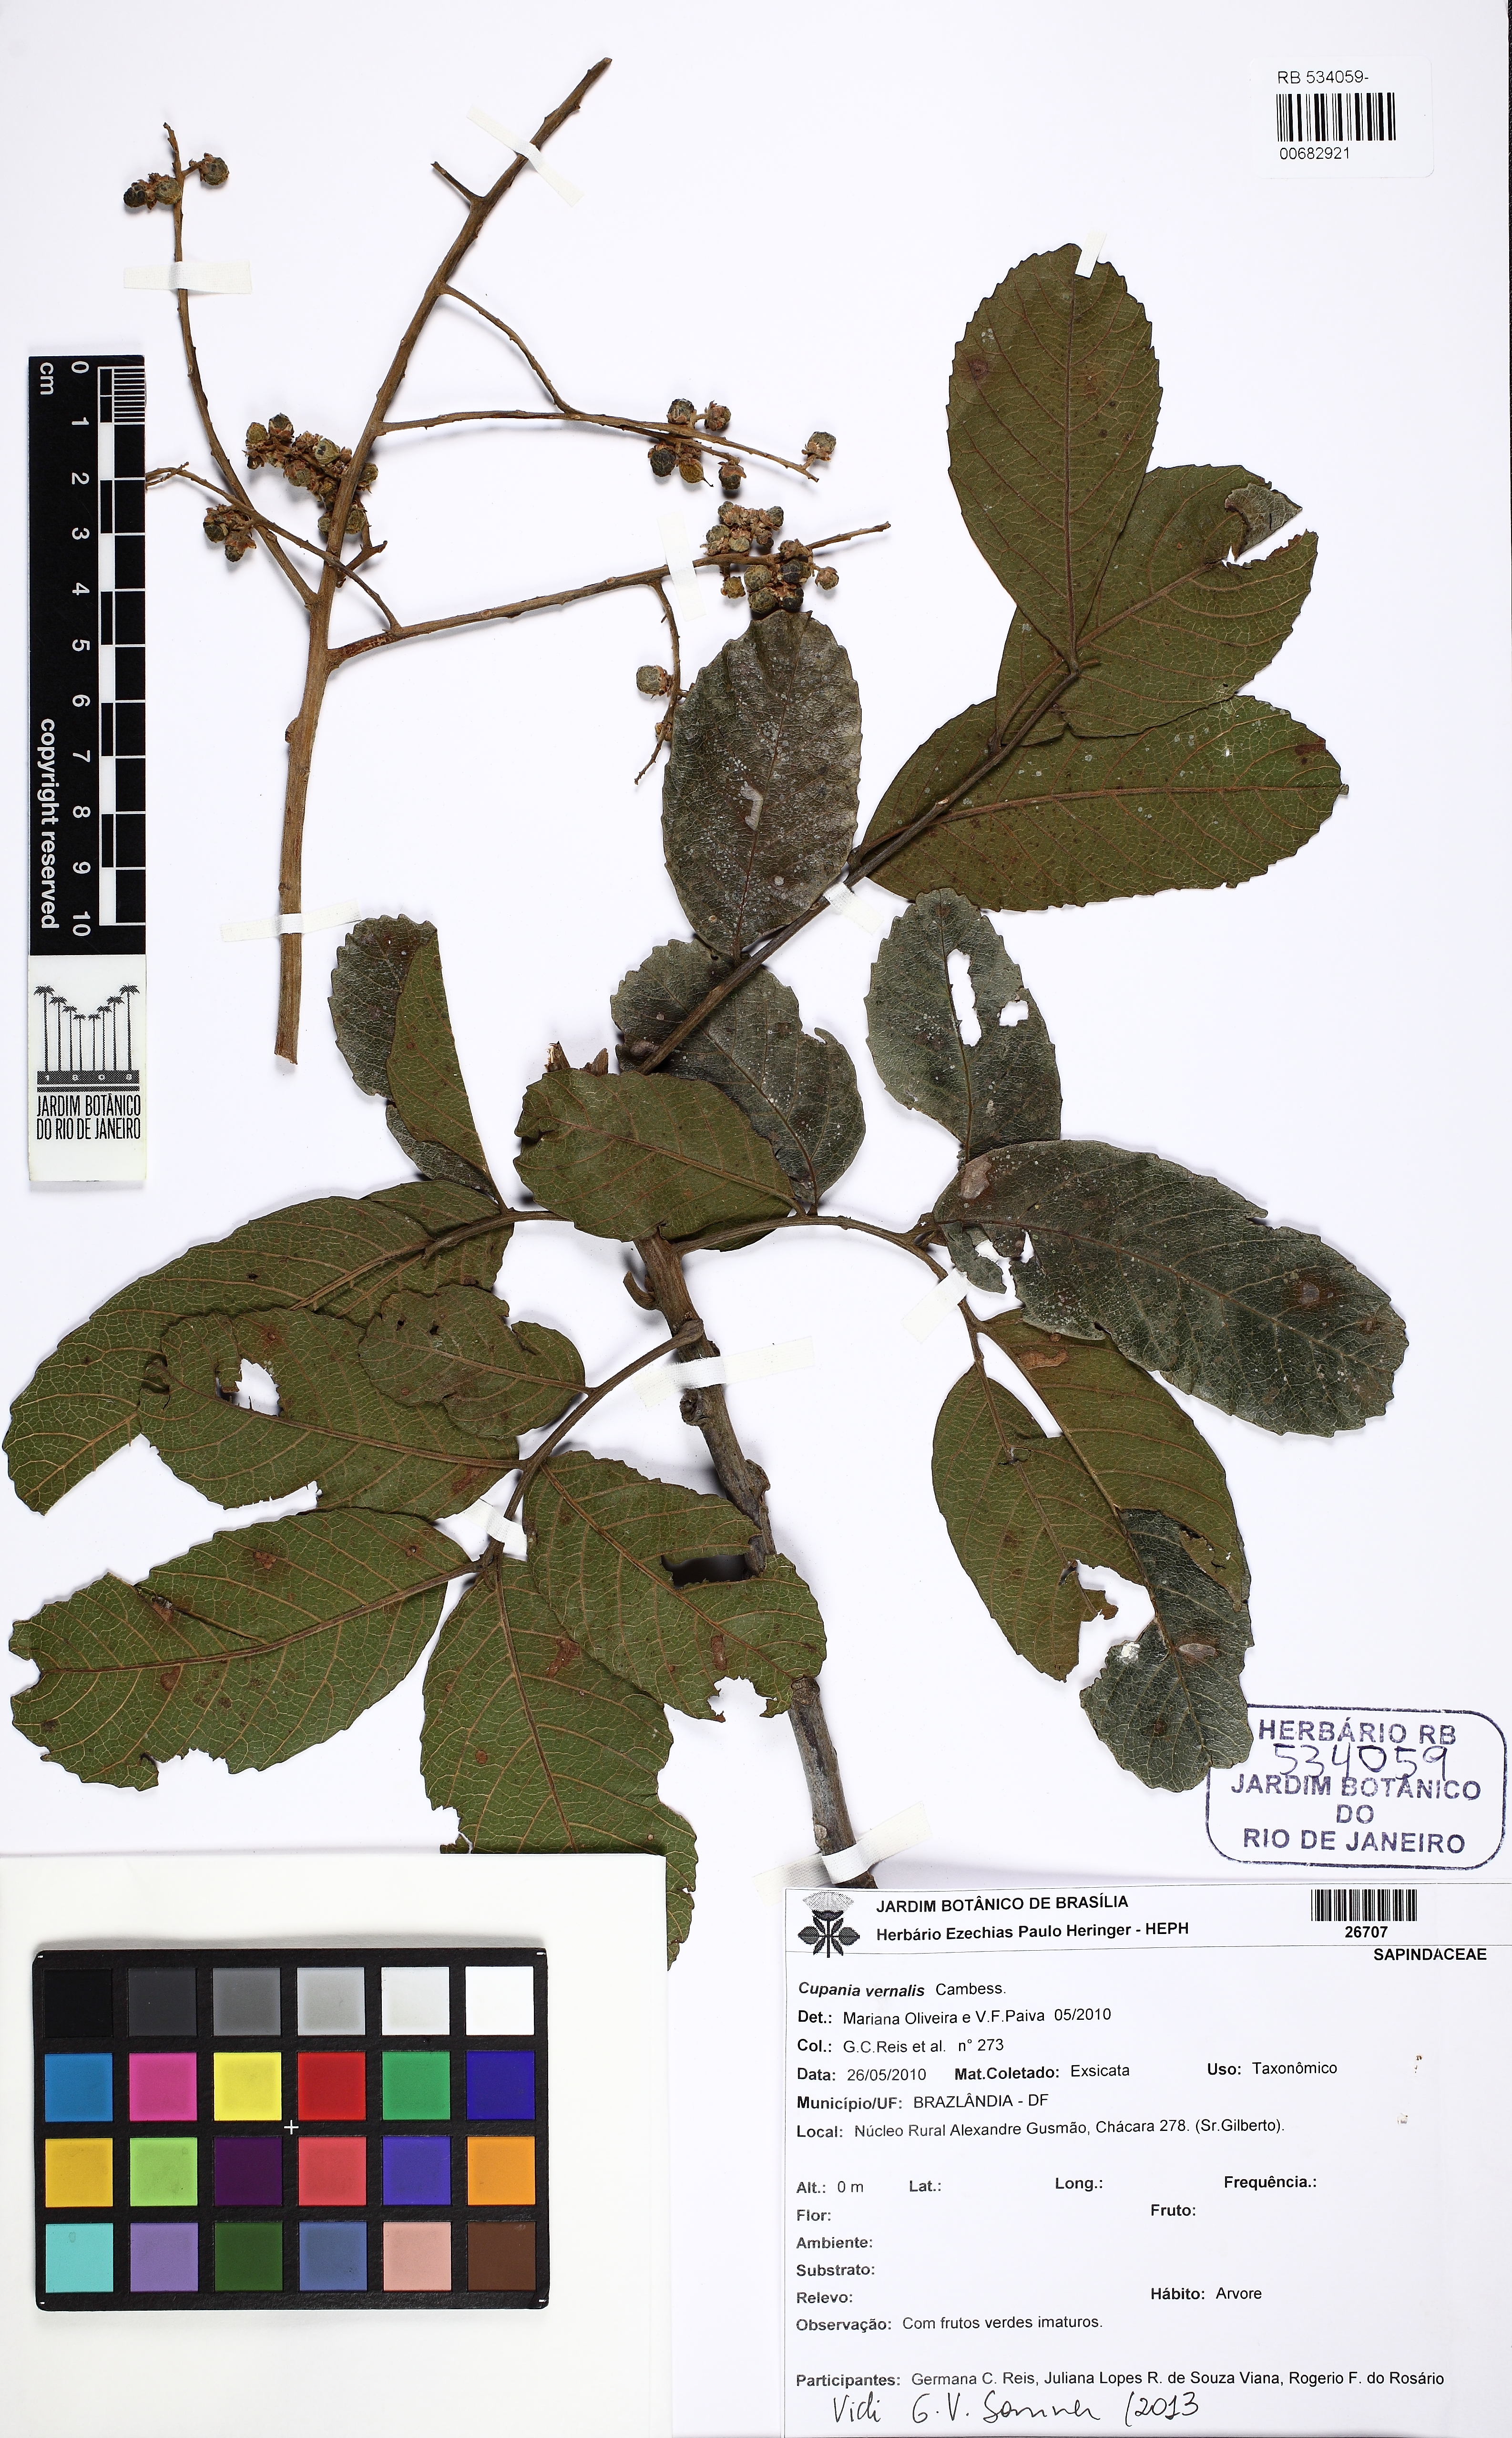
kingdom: Plantae
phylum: Tracheophyta
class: Magnoliopsida
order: Sapindales
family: Sapindaceae
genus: Cupania
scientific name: Cupania vernalis
